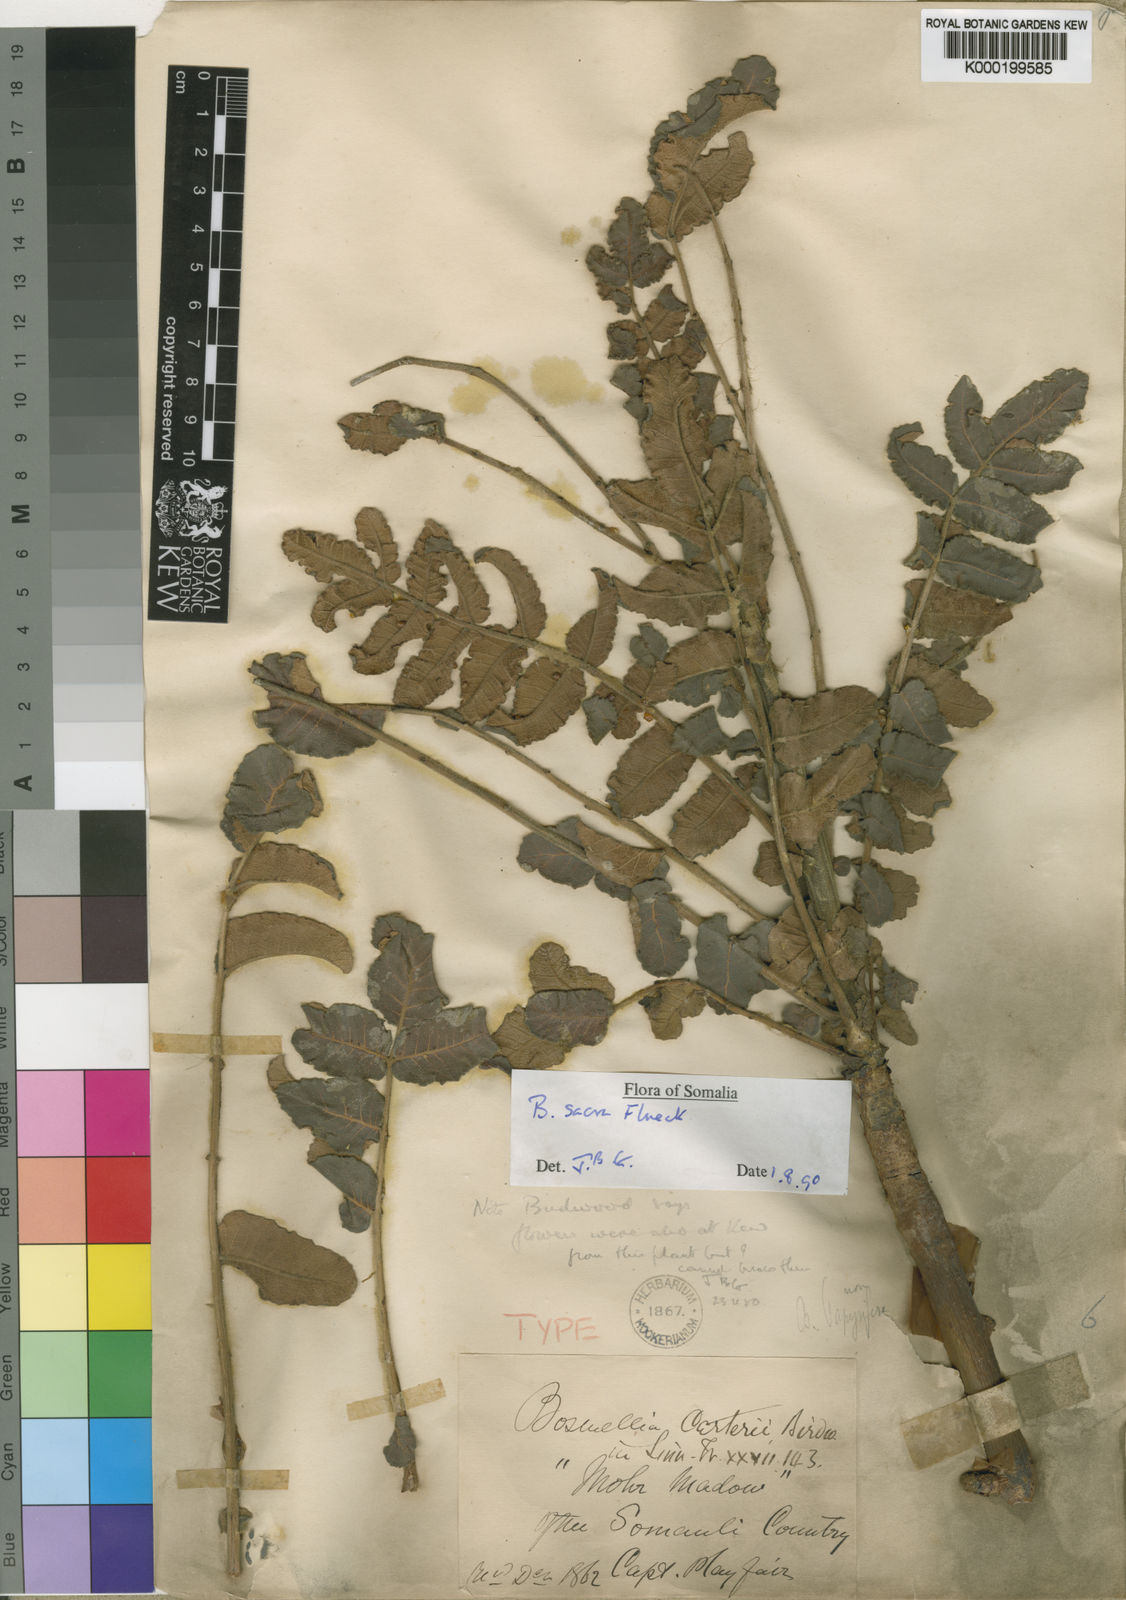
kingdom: Plantae
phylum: Tracheophyta
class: Magnoliopsida
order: Sapindales
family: Burseraceae
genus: Boswellia
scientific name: Boswellia sacra
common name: Olibanum-tree
